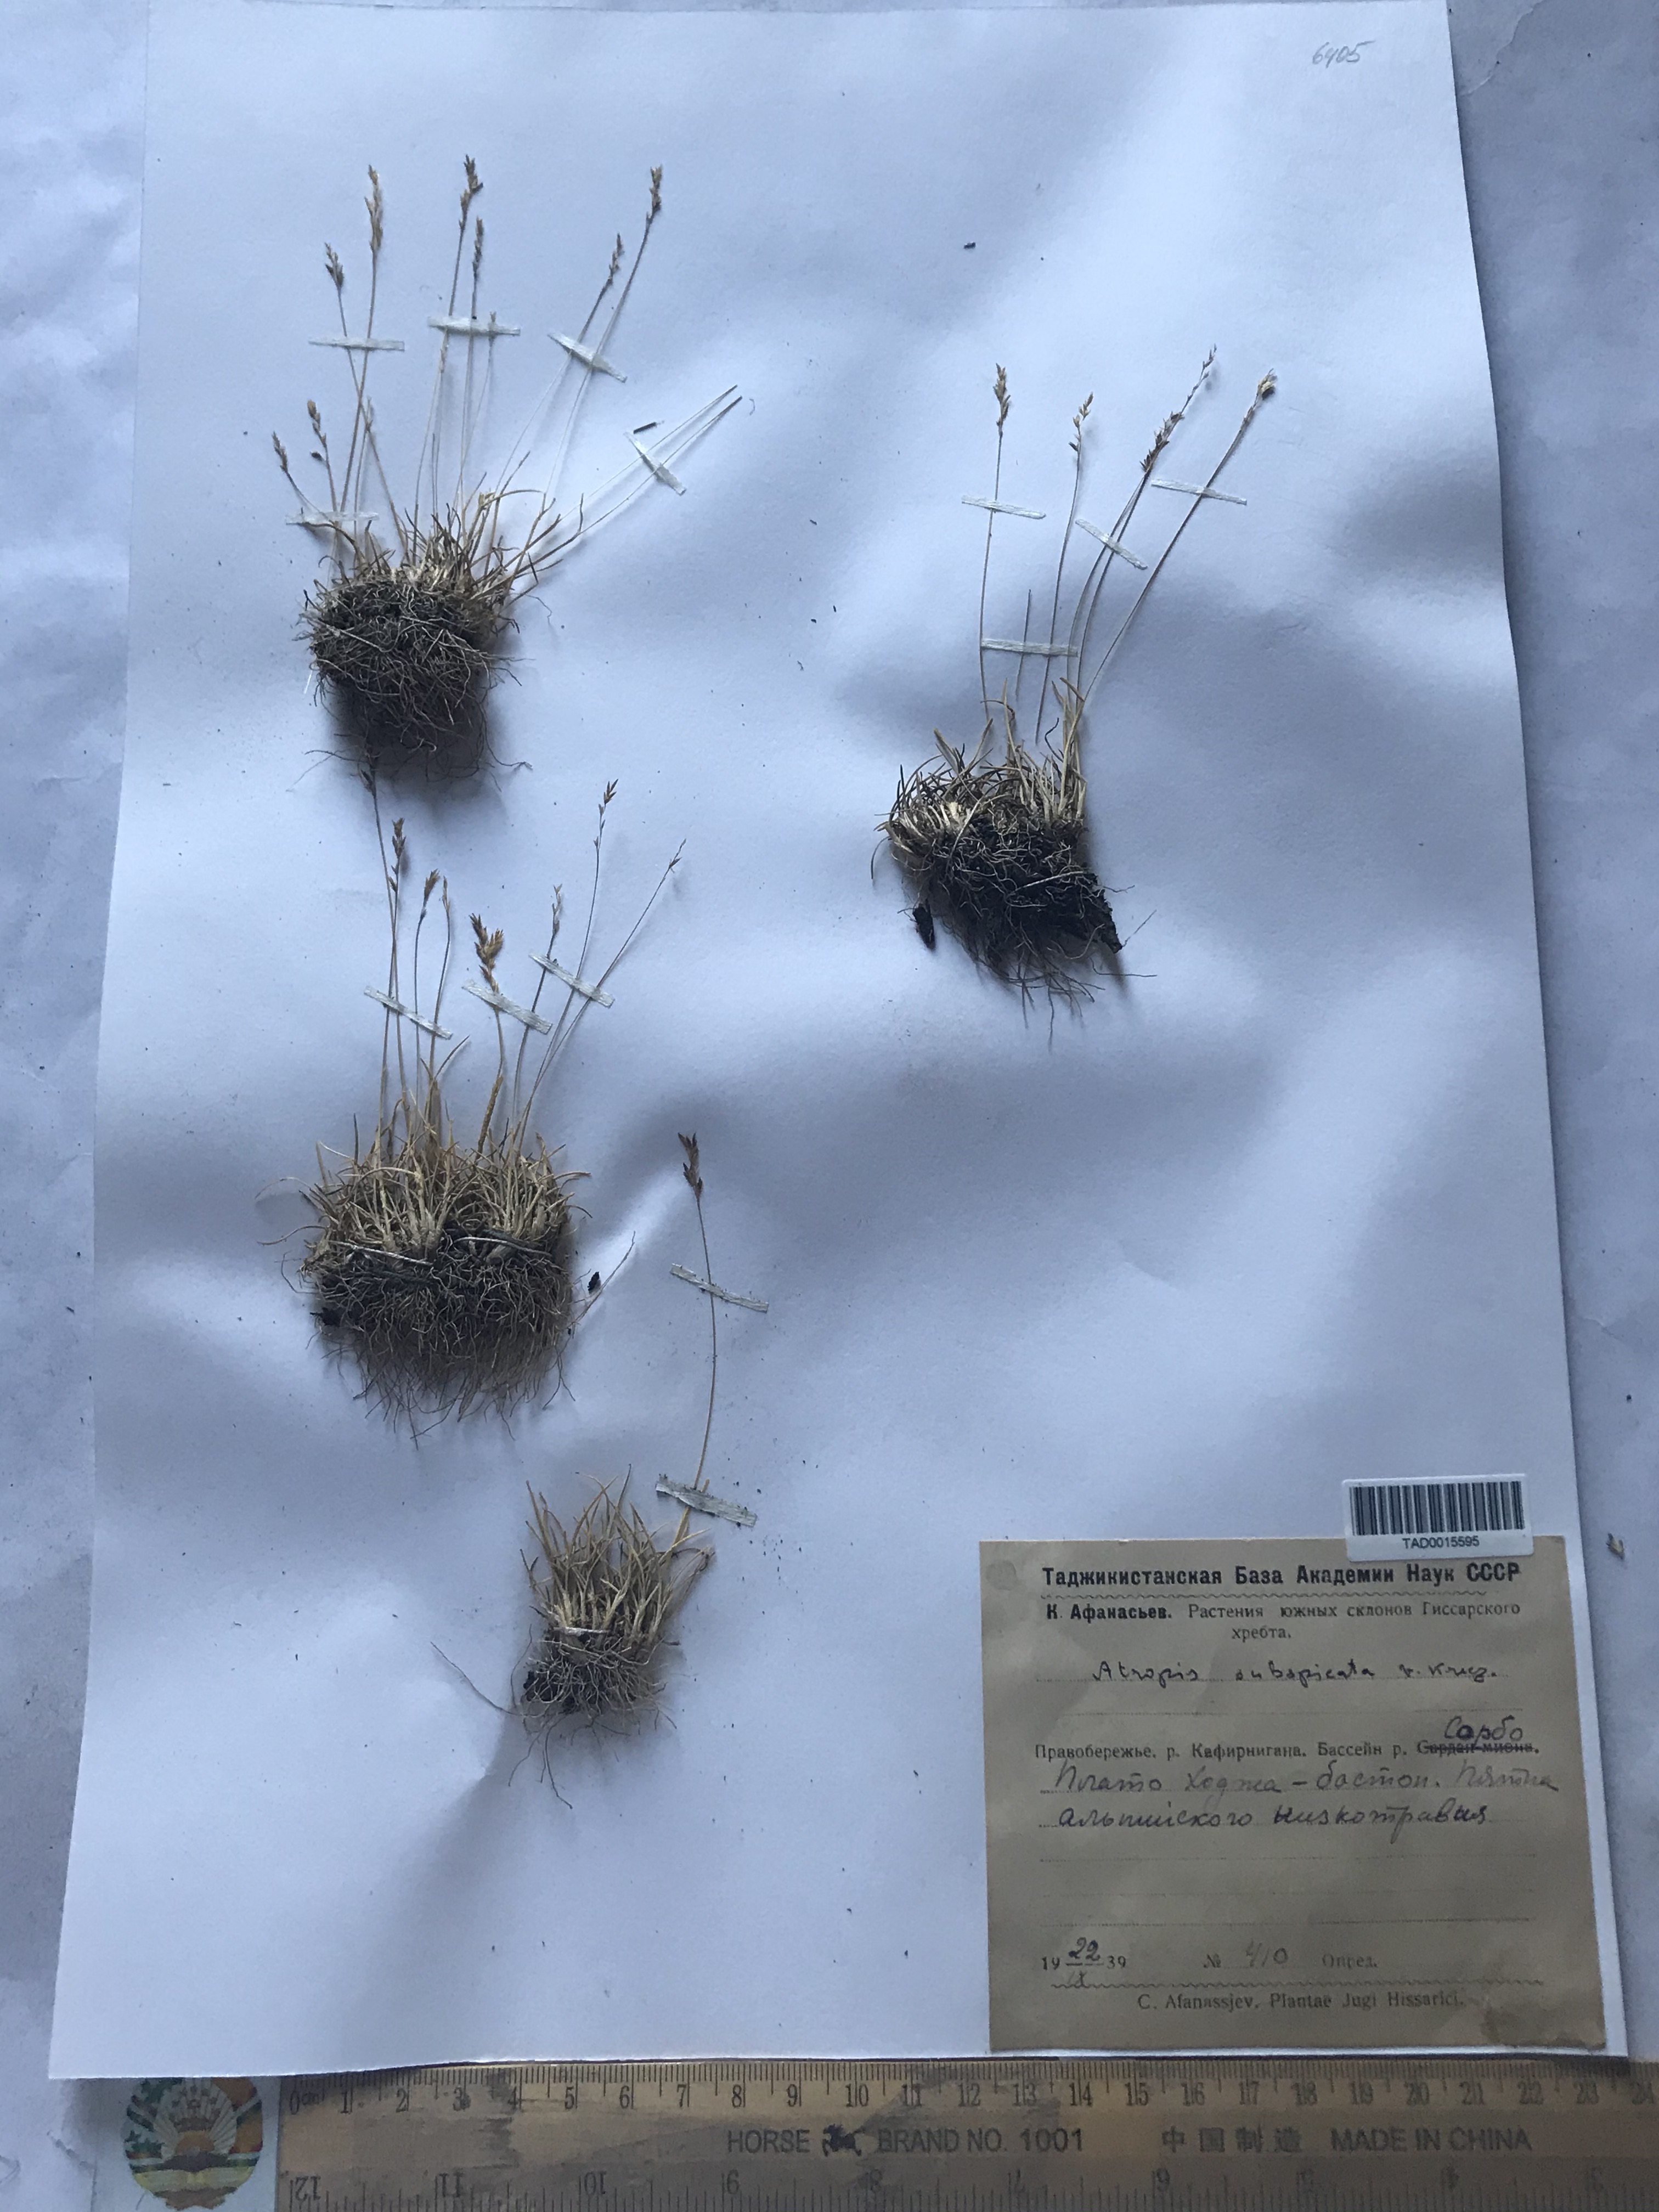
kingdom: Plantae
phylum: Tracheophyta
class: Liliopsida
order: Poales
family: Poaceae
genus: Puccinellia
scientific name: Puccinellia subspicata
